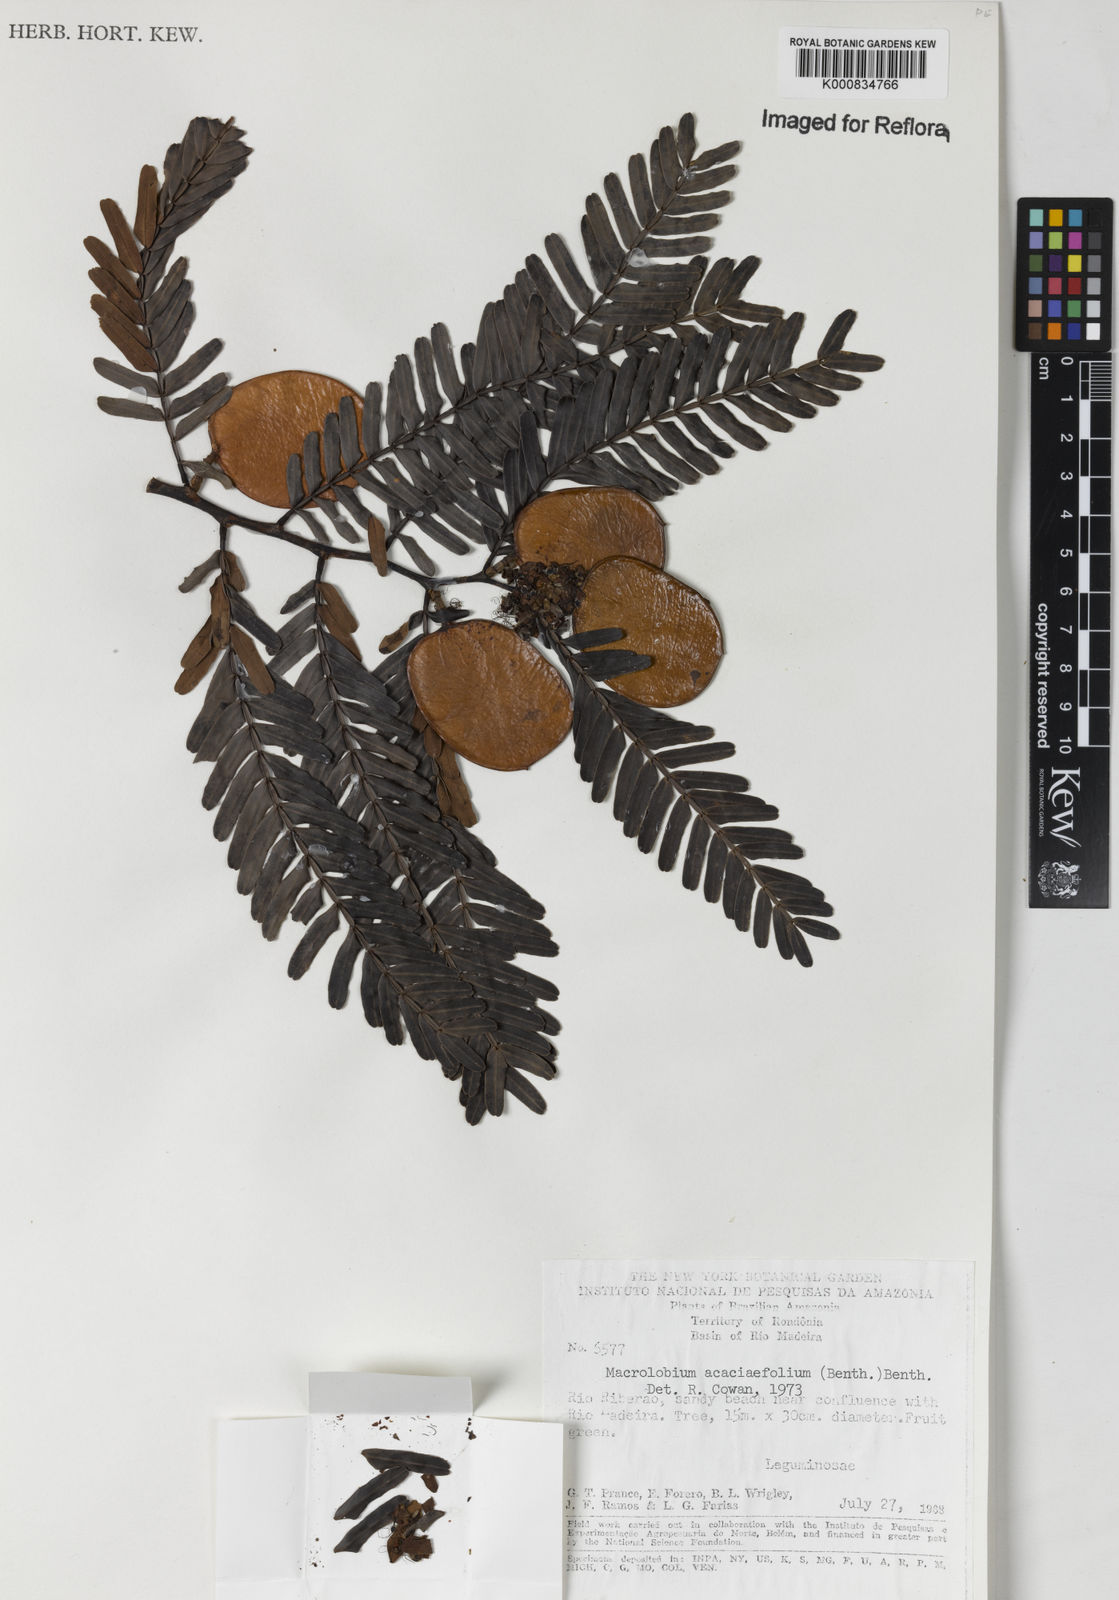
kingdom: Plantae
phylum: Tracheophyta
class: Magnoliopsida
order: Fabales
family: Fabaceae
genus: Macrolobium
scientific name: Macrolobium acaciifolium
